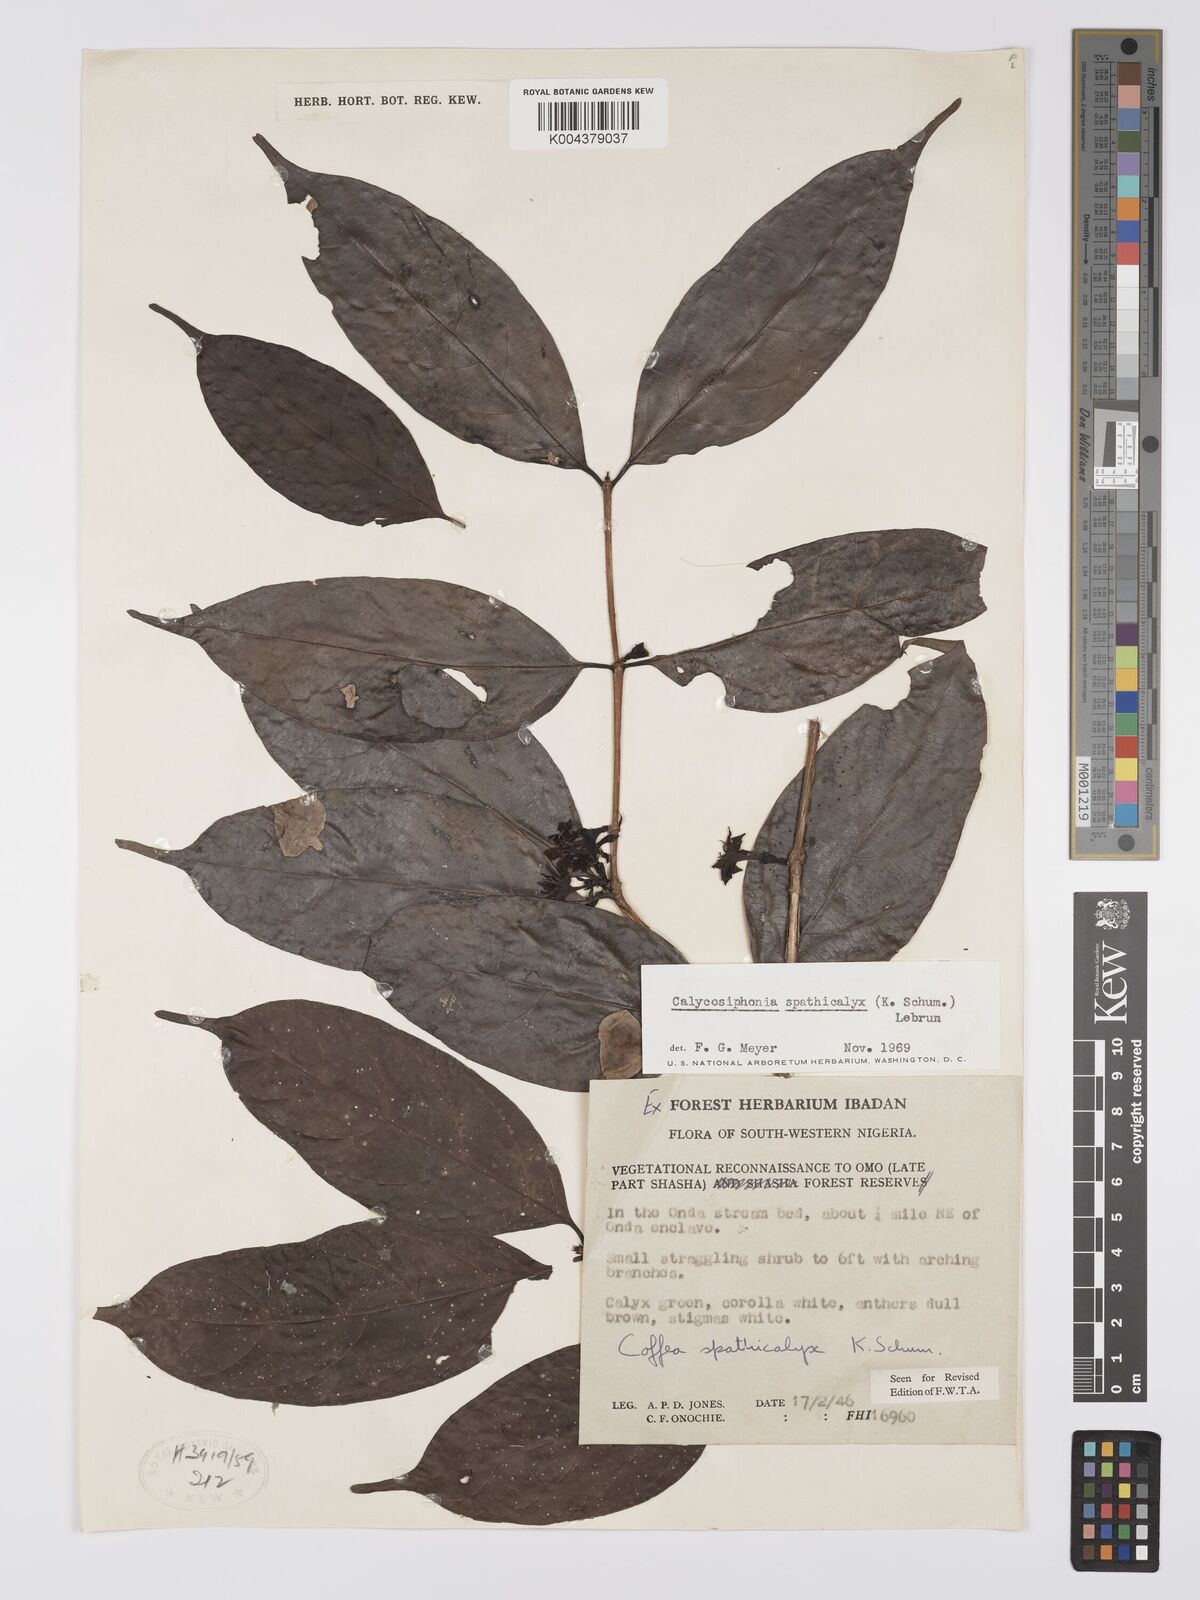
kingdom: Plantae
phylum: Tracheophyta
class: Magnoliopsida
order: Gentianales
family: Rubiaceae
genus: Calycosiphonia
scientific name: Calycosiphonia spathicalyx
